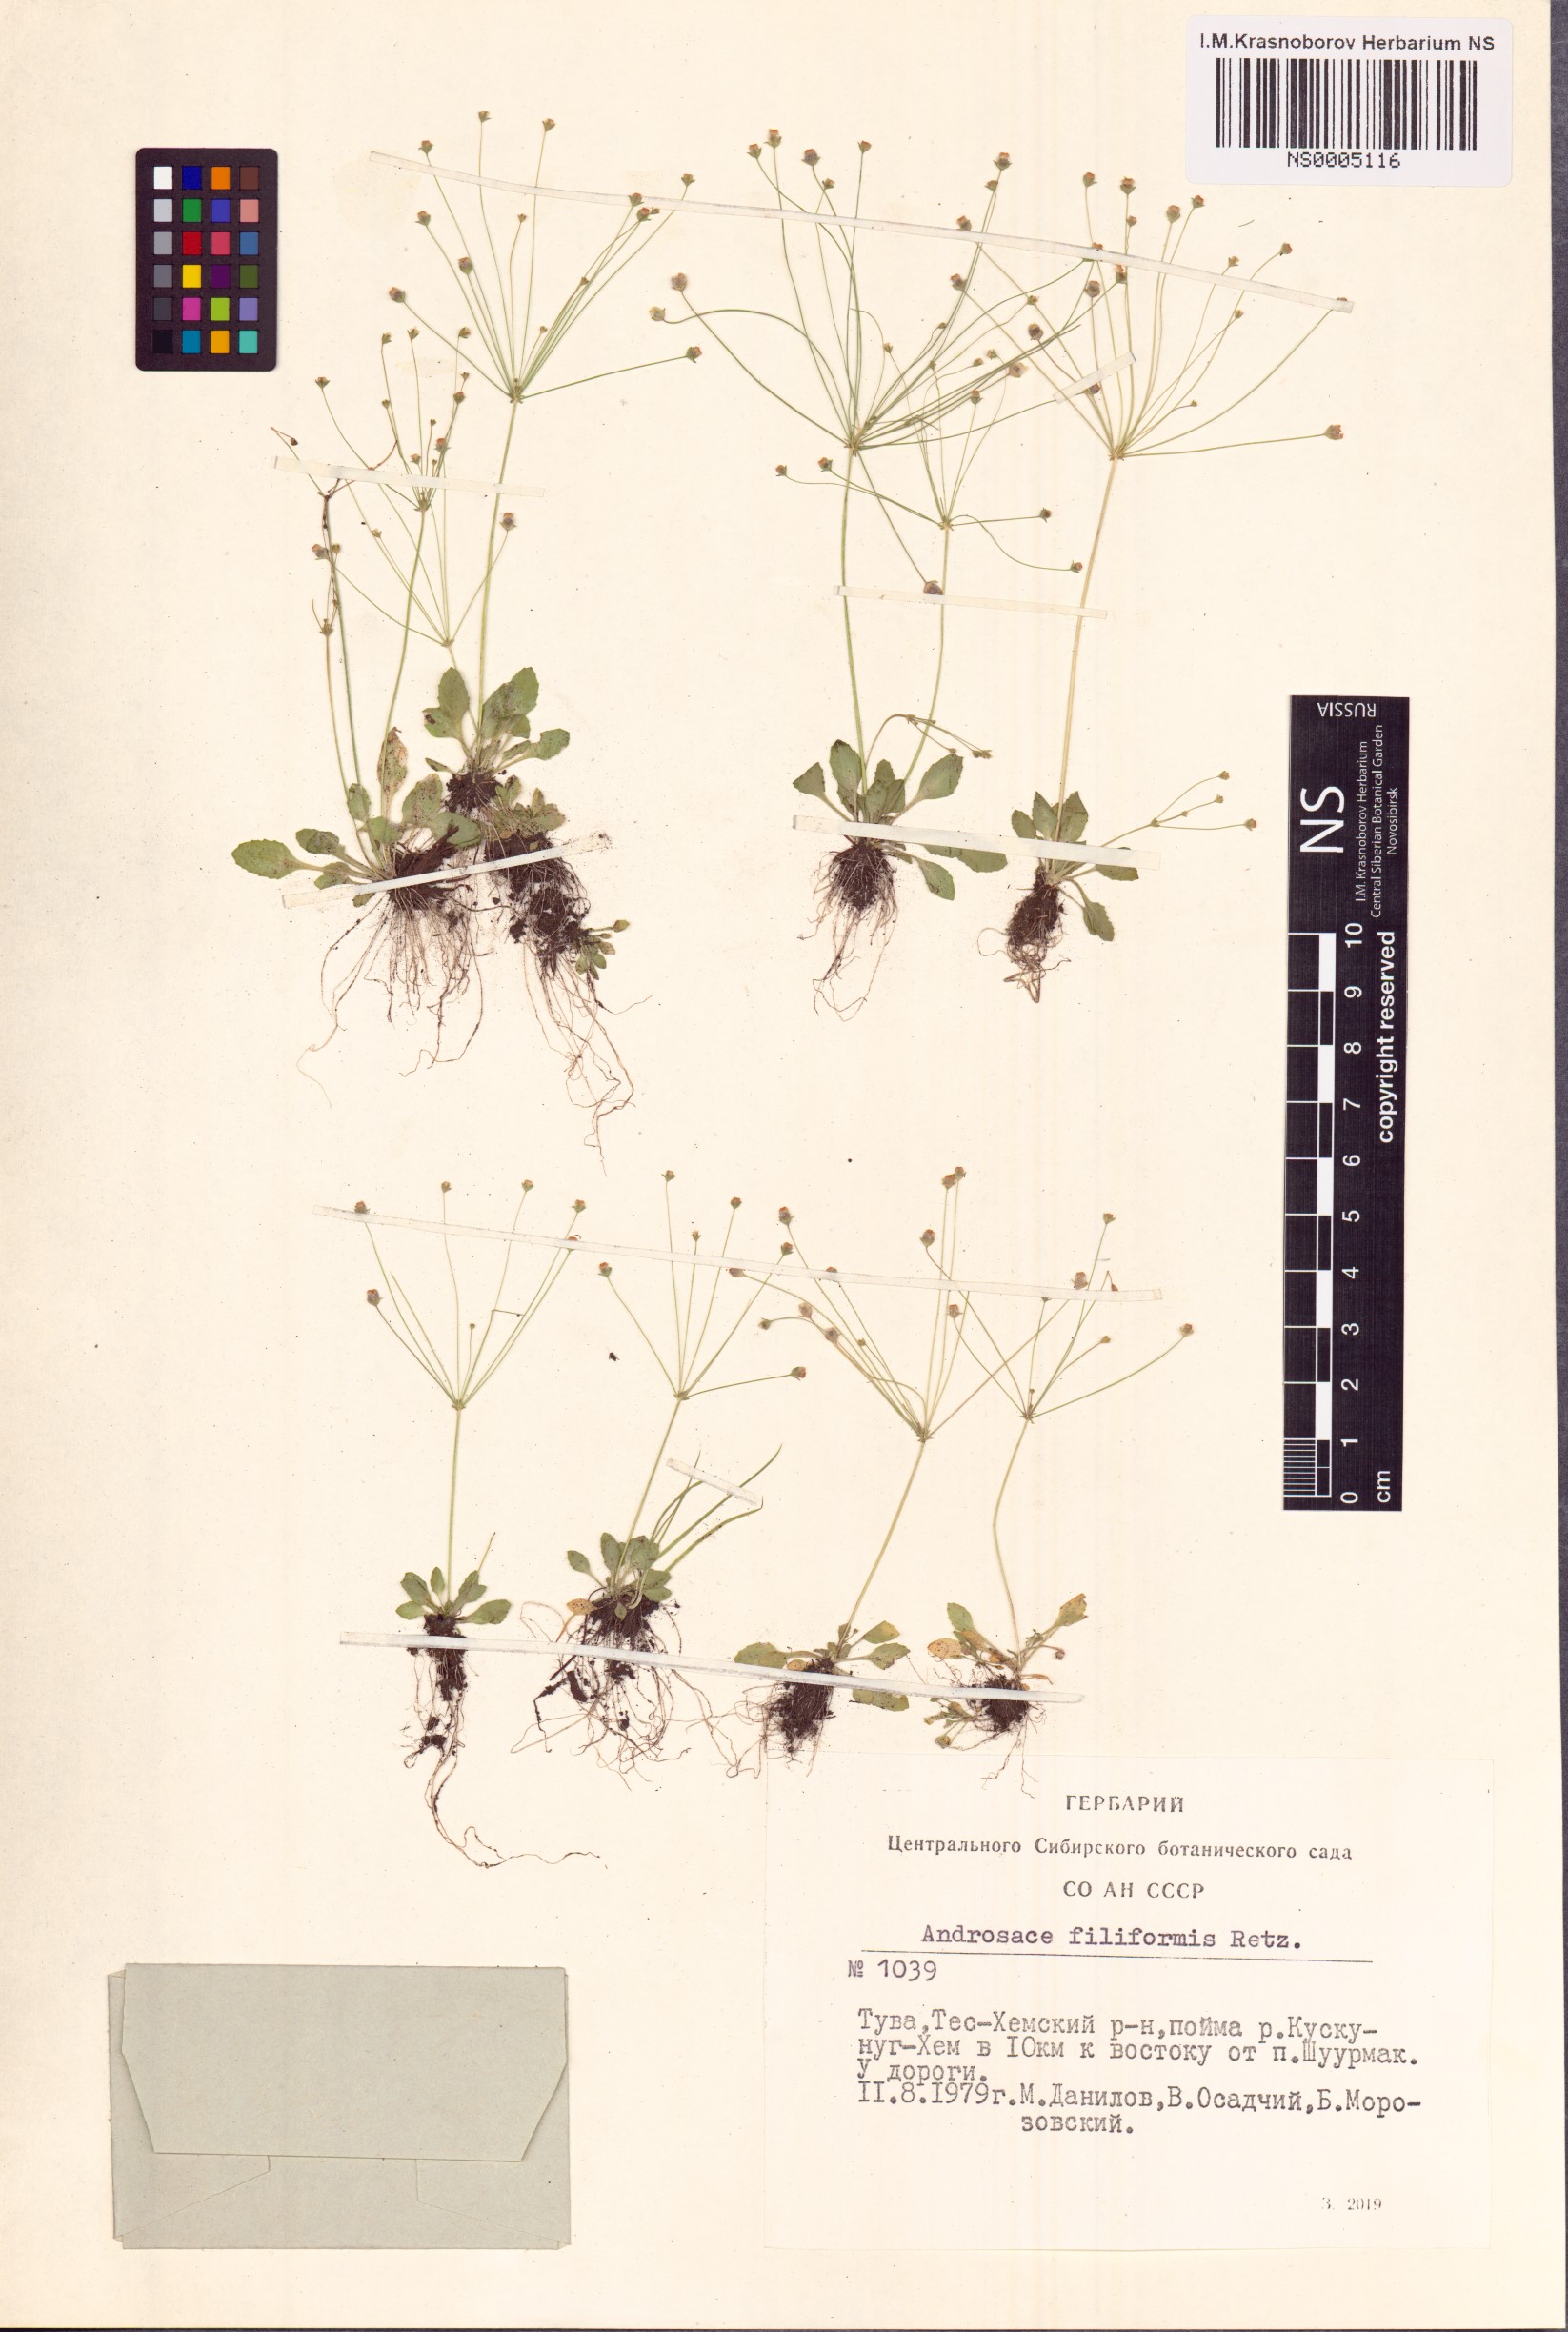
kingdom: Plantae
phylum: Tracheophyta
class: Magnoliopsida
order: Ericales
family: Primulaceae
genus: Androsace
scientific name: Androsace filiformis
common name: Filiform rock jasmine
